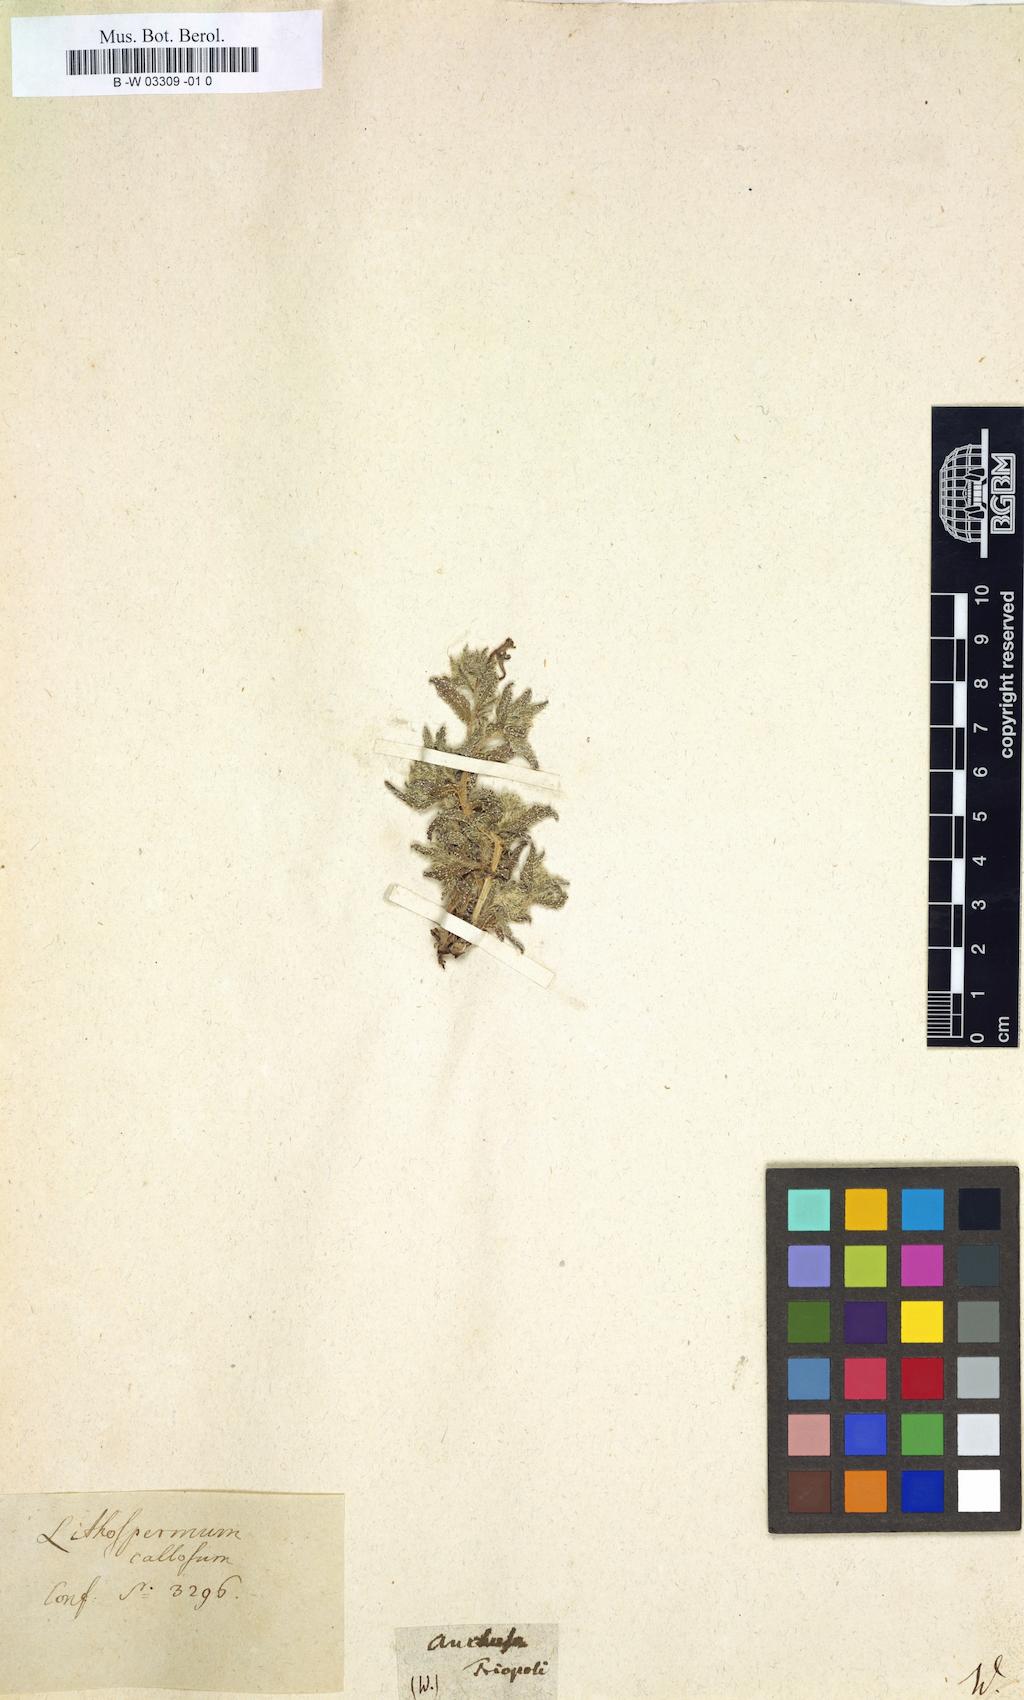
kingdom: Plantae
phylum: Tracheophyta
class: Magnoliopsida
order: Boraginales
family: Boraginaceae
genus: Pardoglossum
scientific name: Pardoglossum lanatum
